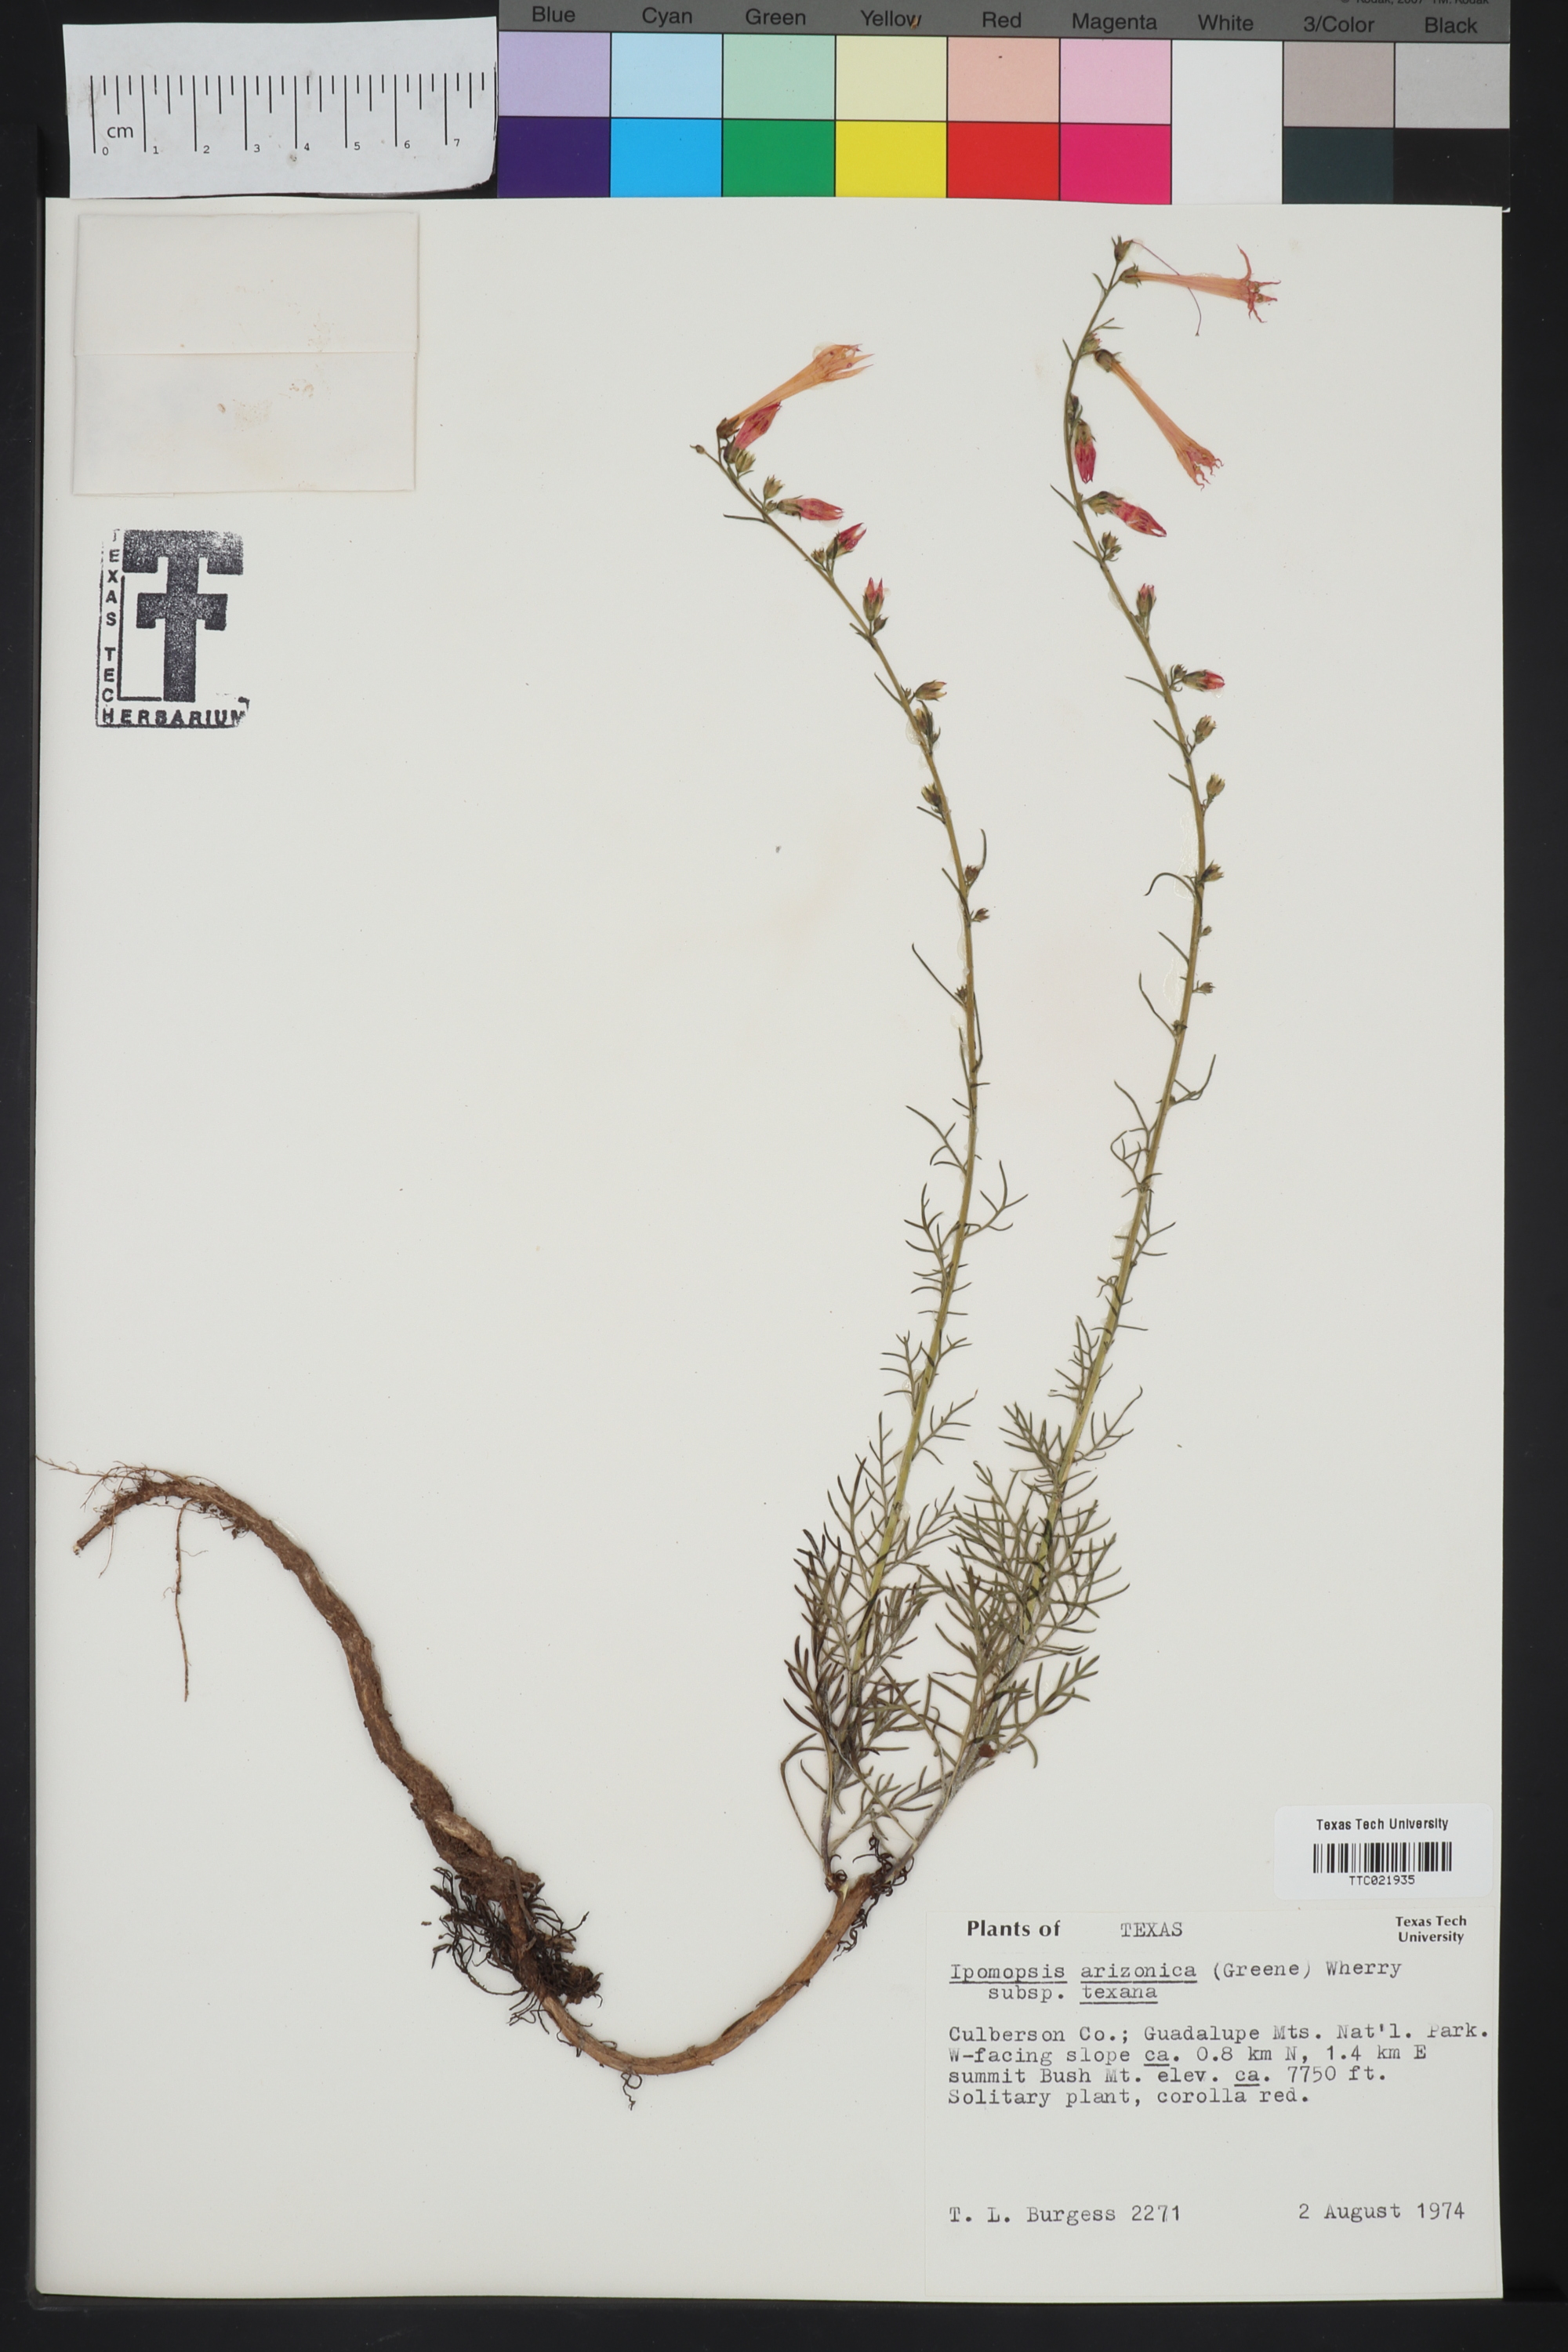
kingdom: Plantae
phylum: Tracheophyta
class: Magnoliopsida
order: Ericales
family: Polemoniaceae
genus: Ipomopsis
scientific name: Ipomopsis aggregata
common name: Scarlet gilia
